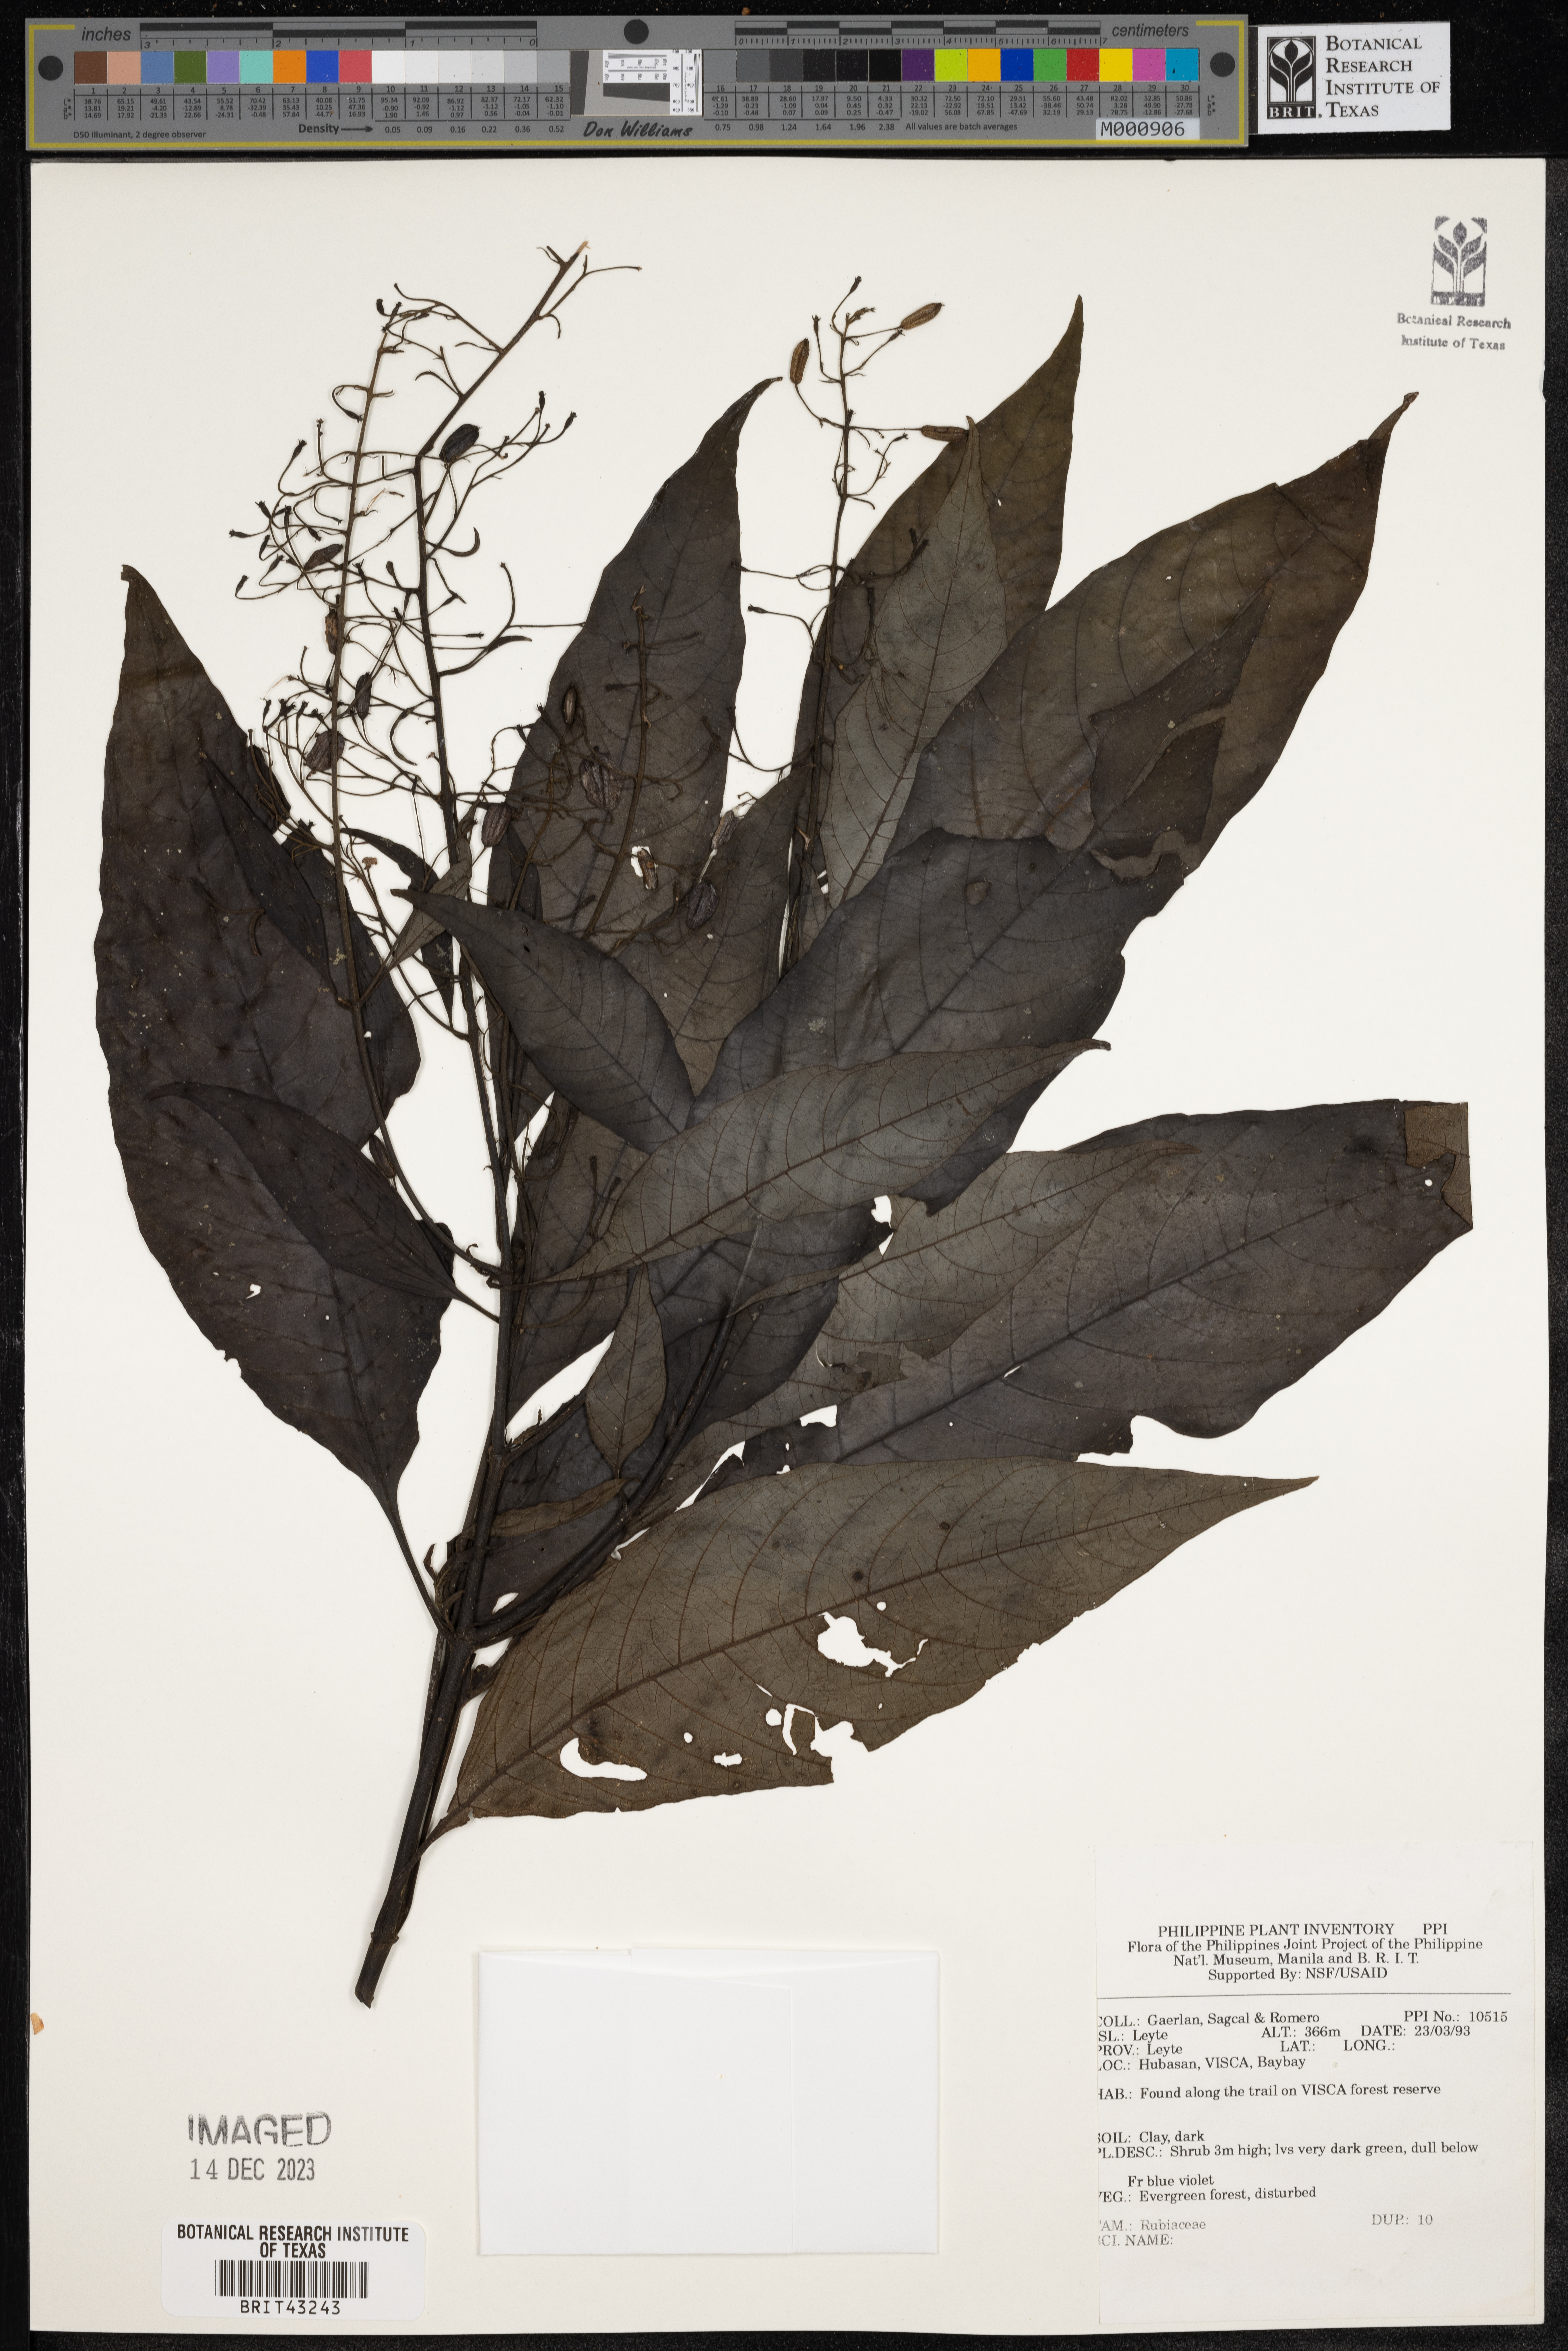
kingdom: Plantae
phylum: Tracheophyta
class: Magnoliopsida
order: Gentianales
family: Rubiaceae
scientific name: Rubiaceae
